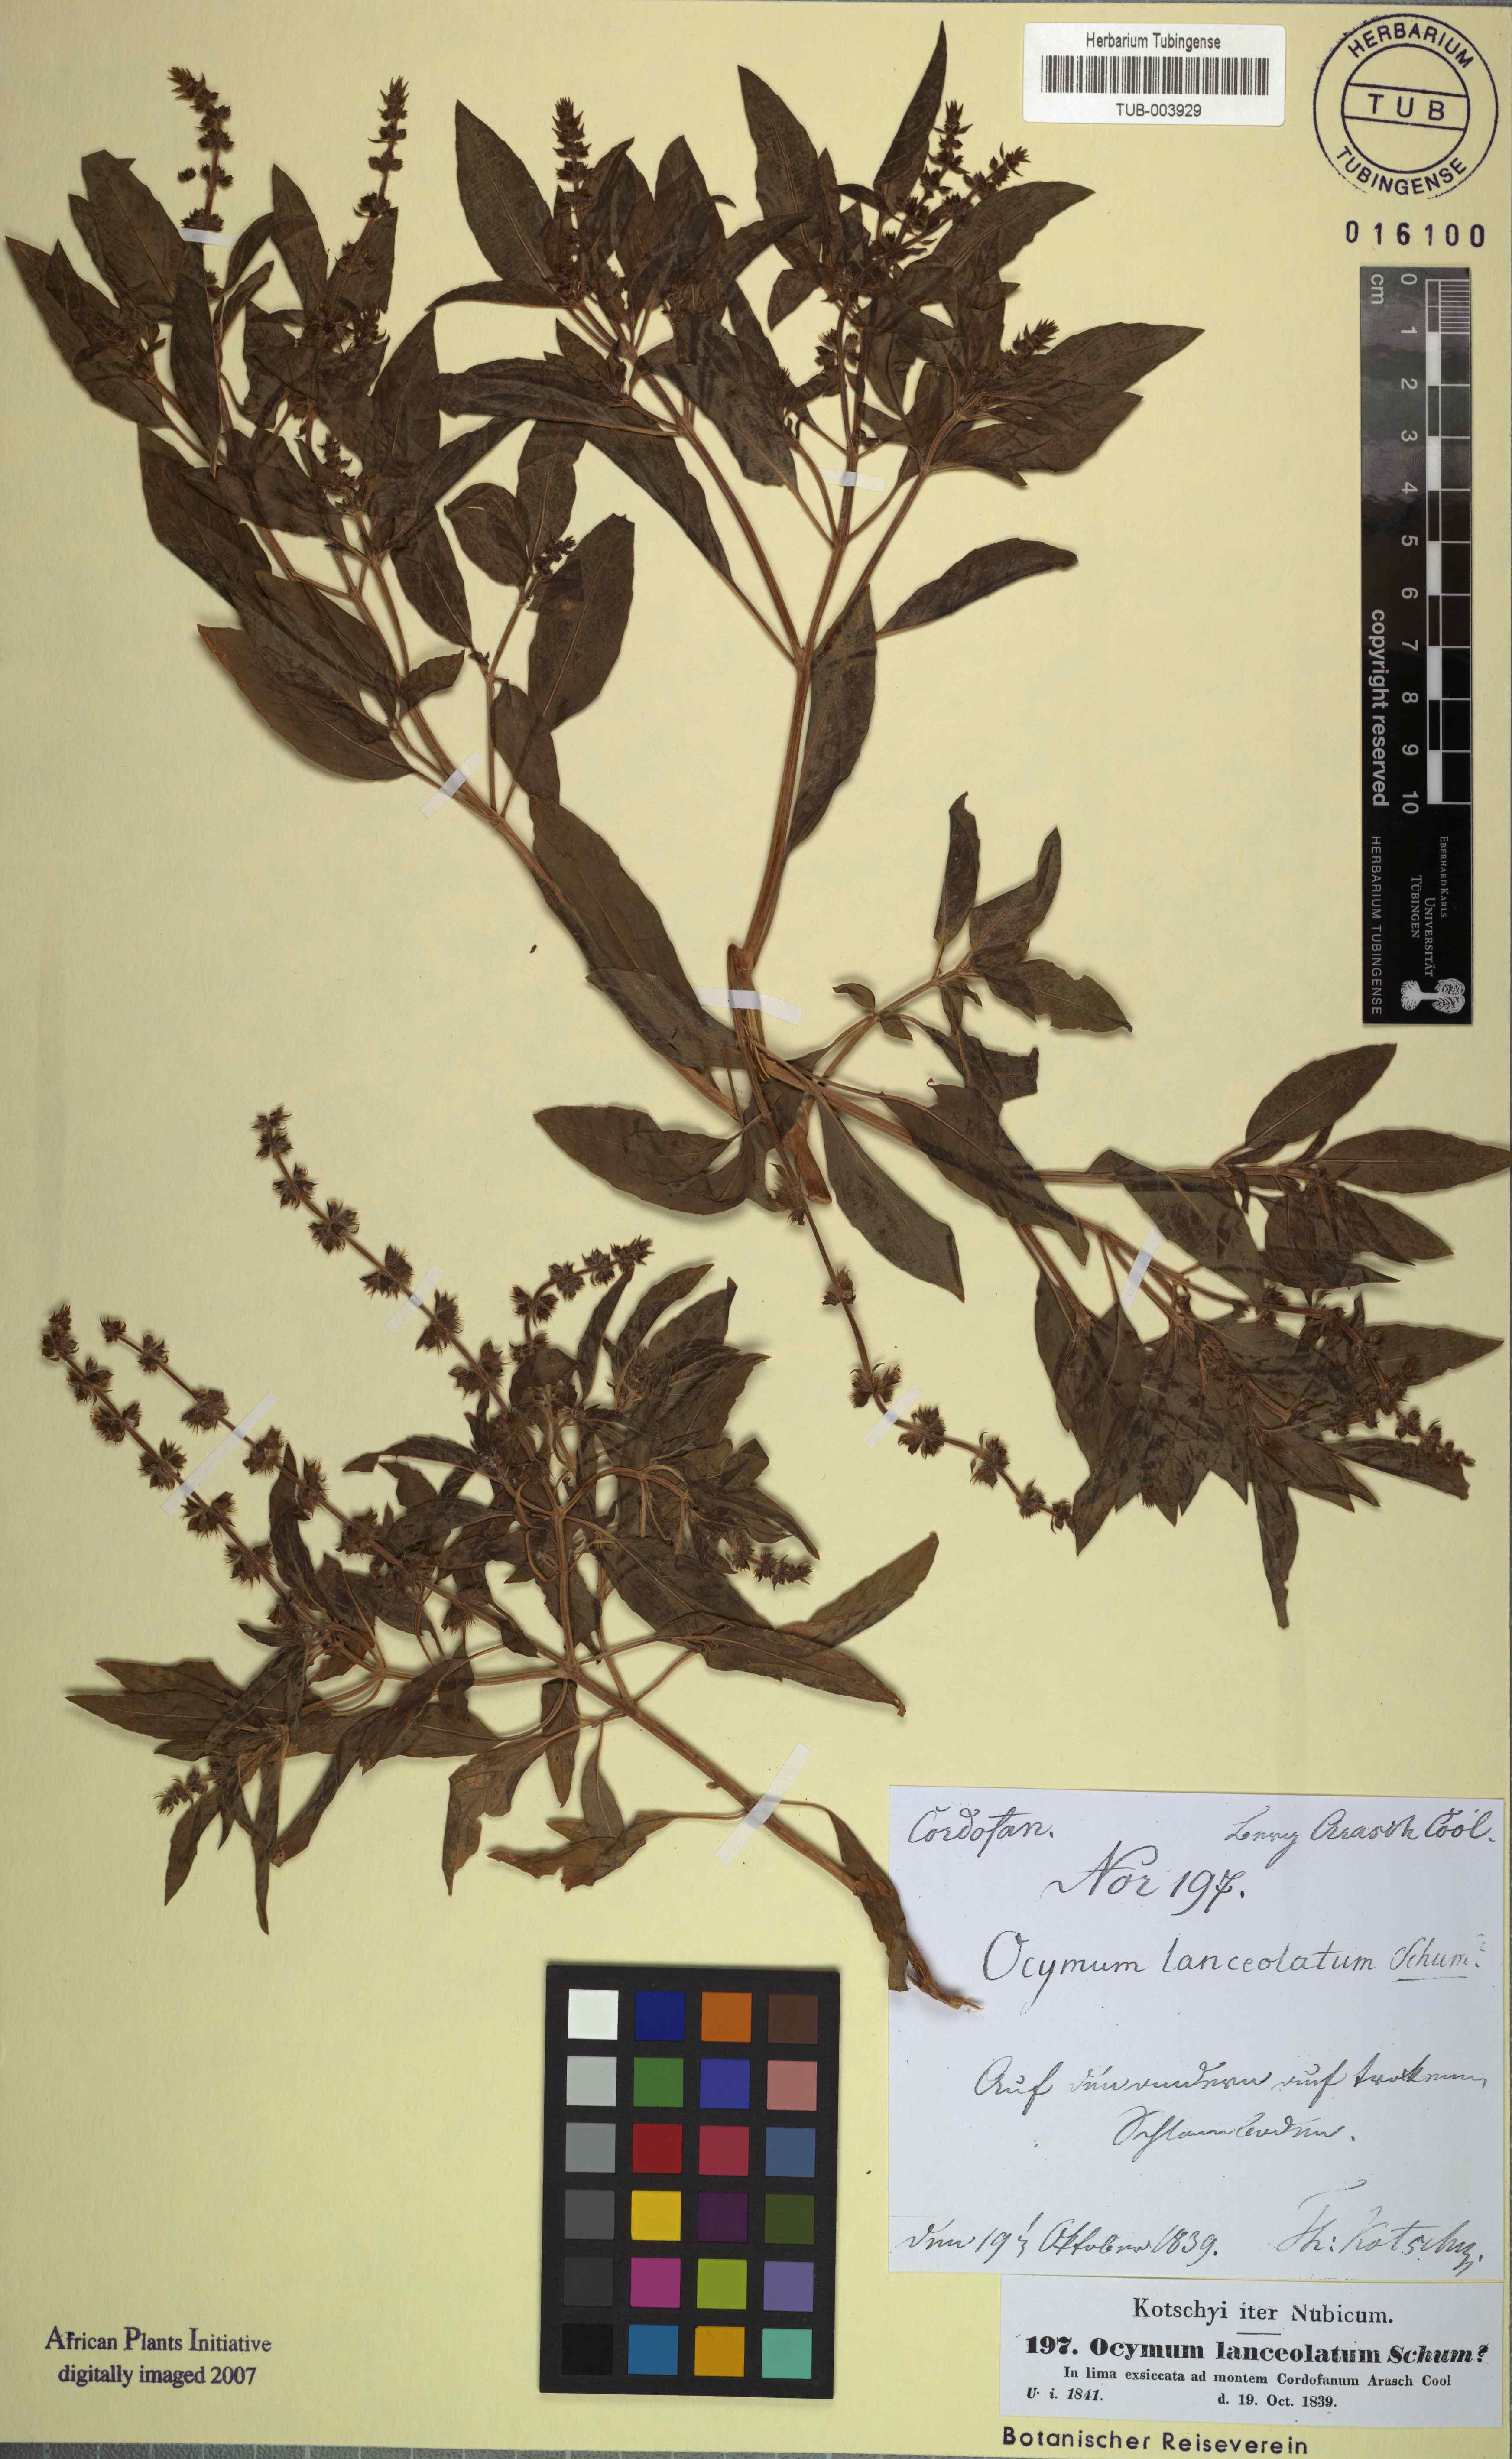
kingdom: Plantae
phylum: Tracheophyta
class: Magnoliopsida
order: Lamiales
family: Lamiaceae
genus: Ocimum
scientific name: Ocimum basilicum
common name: Sweet basil
